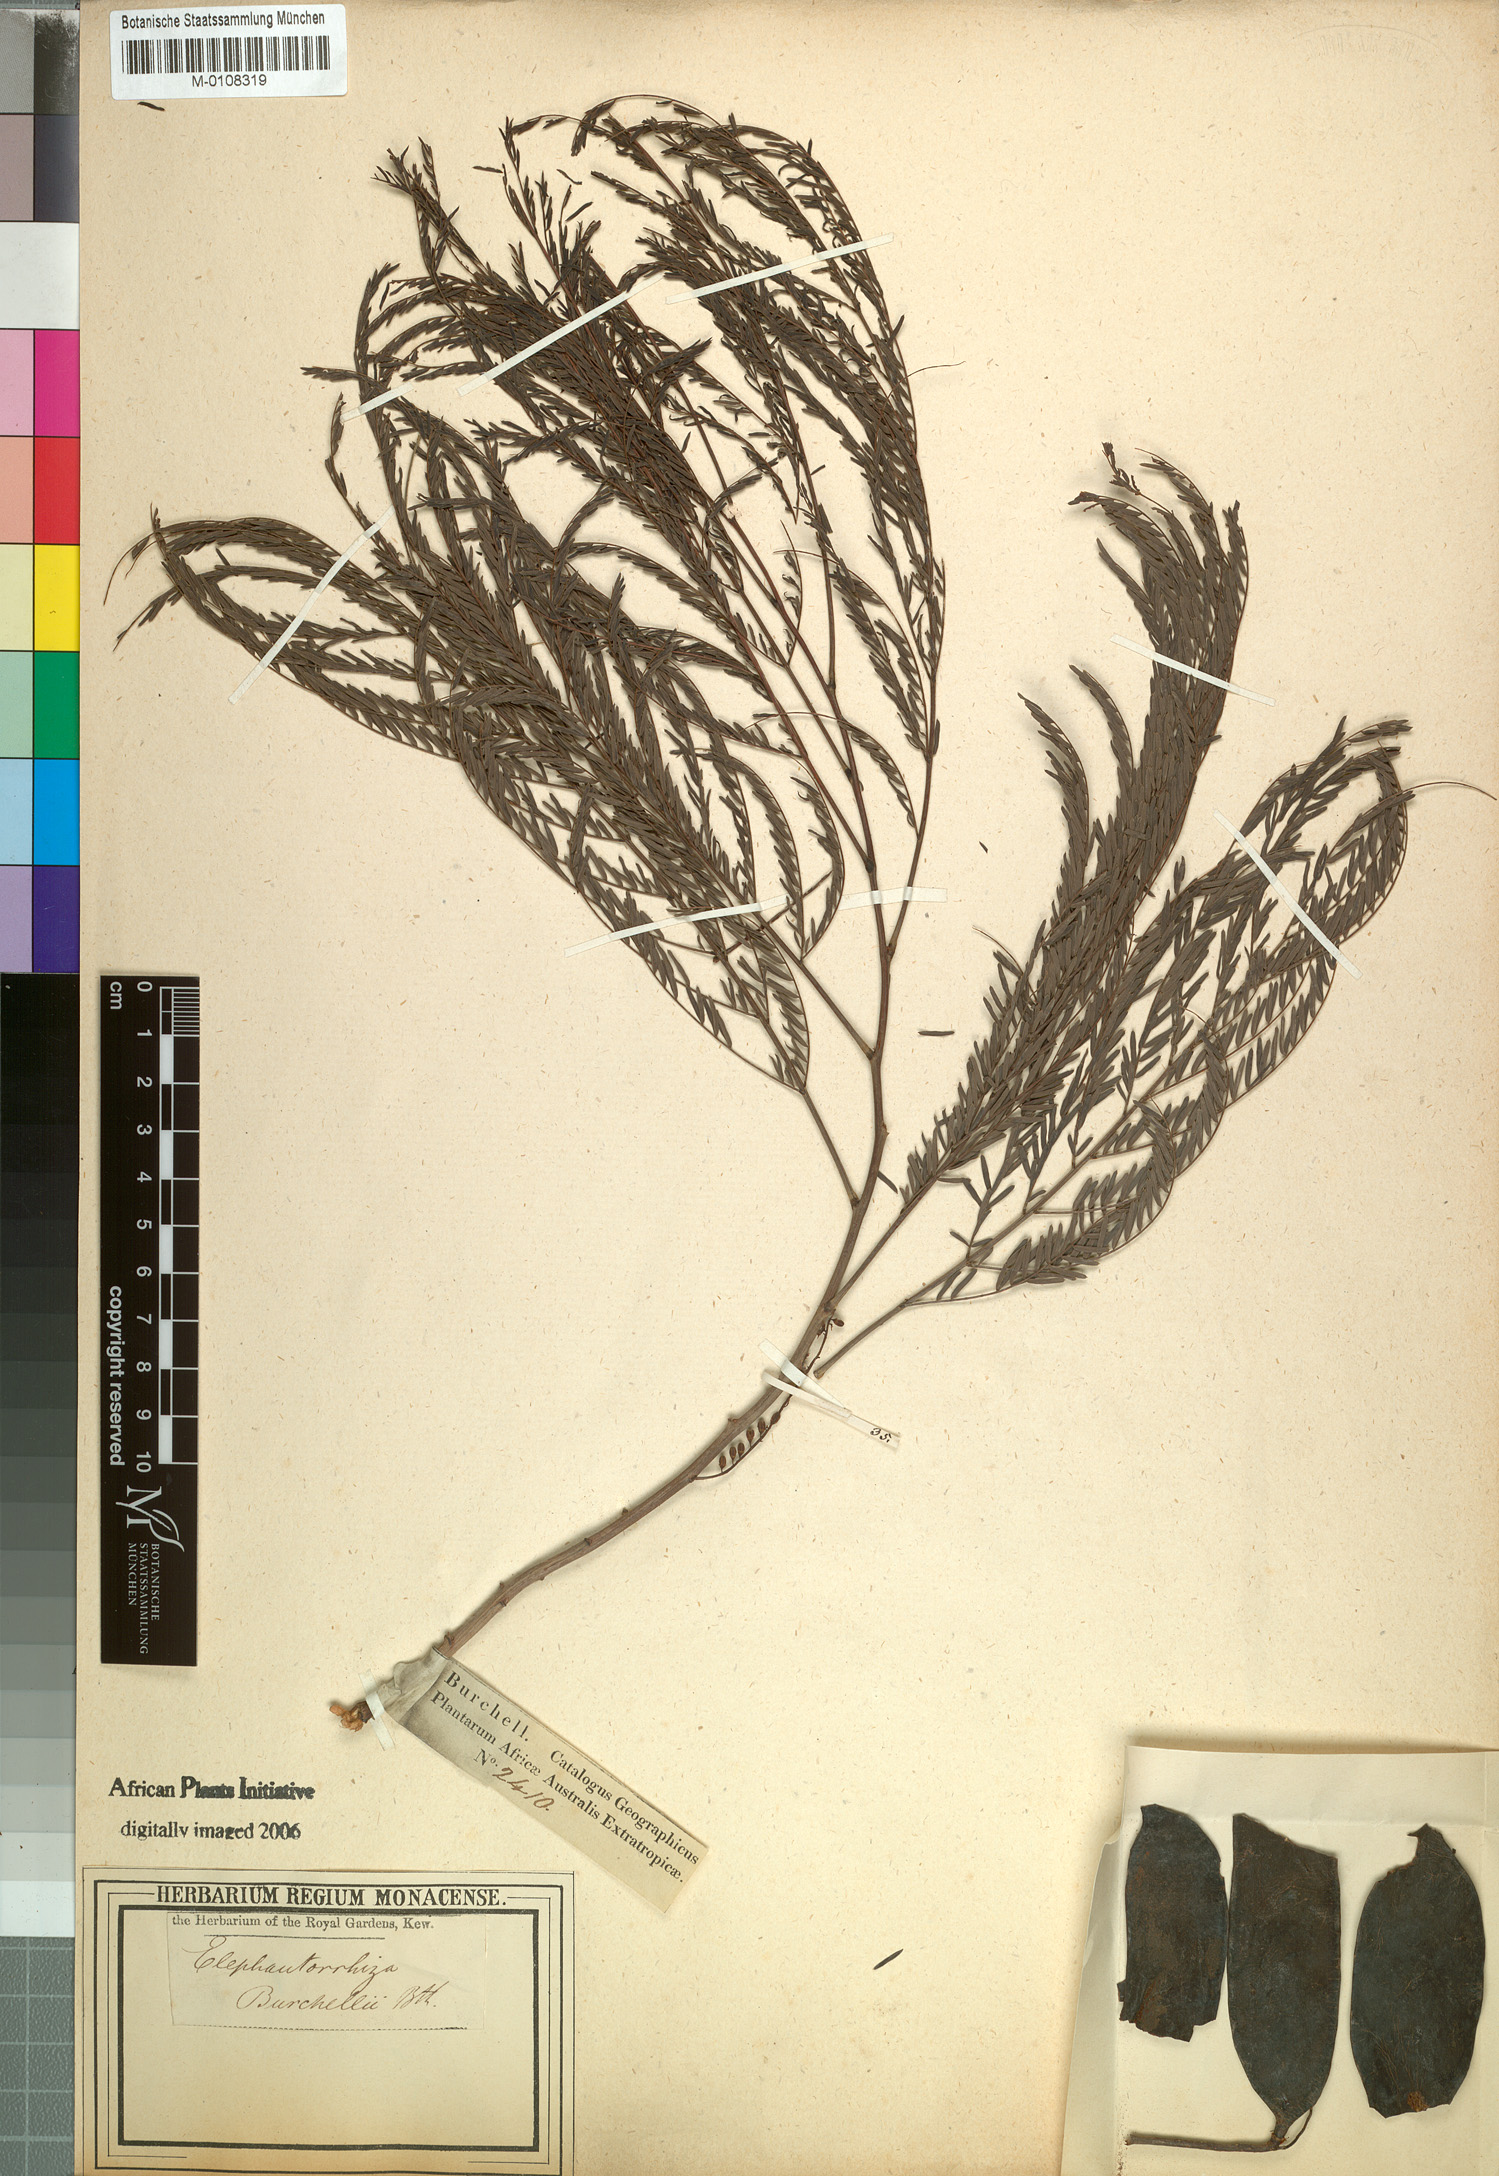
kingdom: Plantae
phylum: Tracheophyta
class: Magnoliopsida
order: Fabales
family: Fabaceae
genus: Elephantorrhiza
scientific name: Elephantorrhiza elephantina
